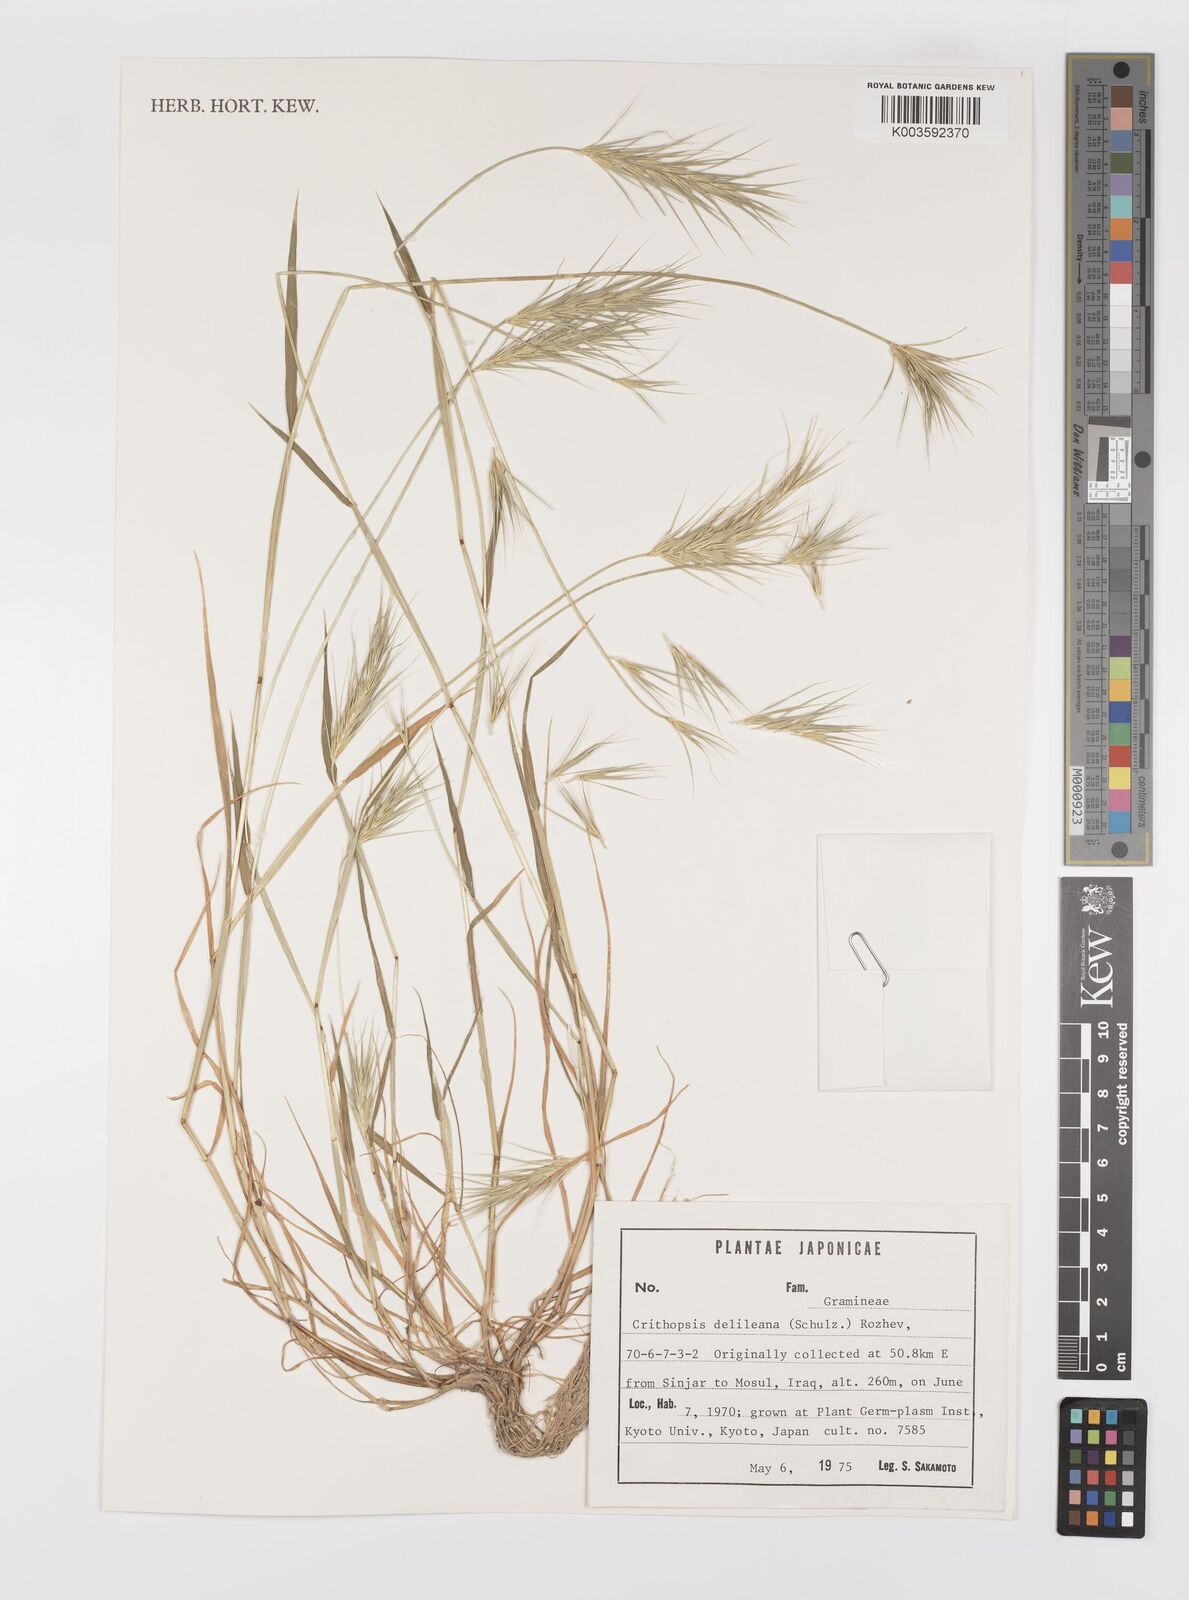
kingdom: Plantae
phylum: Tracheophyta
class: Liliopsida
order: Poales
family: Poaceae
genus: Crithopsis
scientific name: Crithopsis delileana
